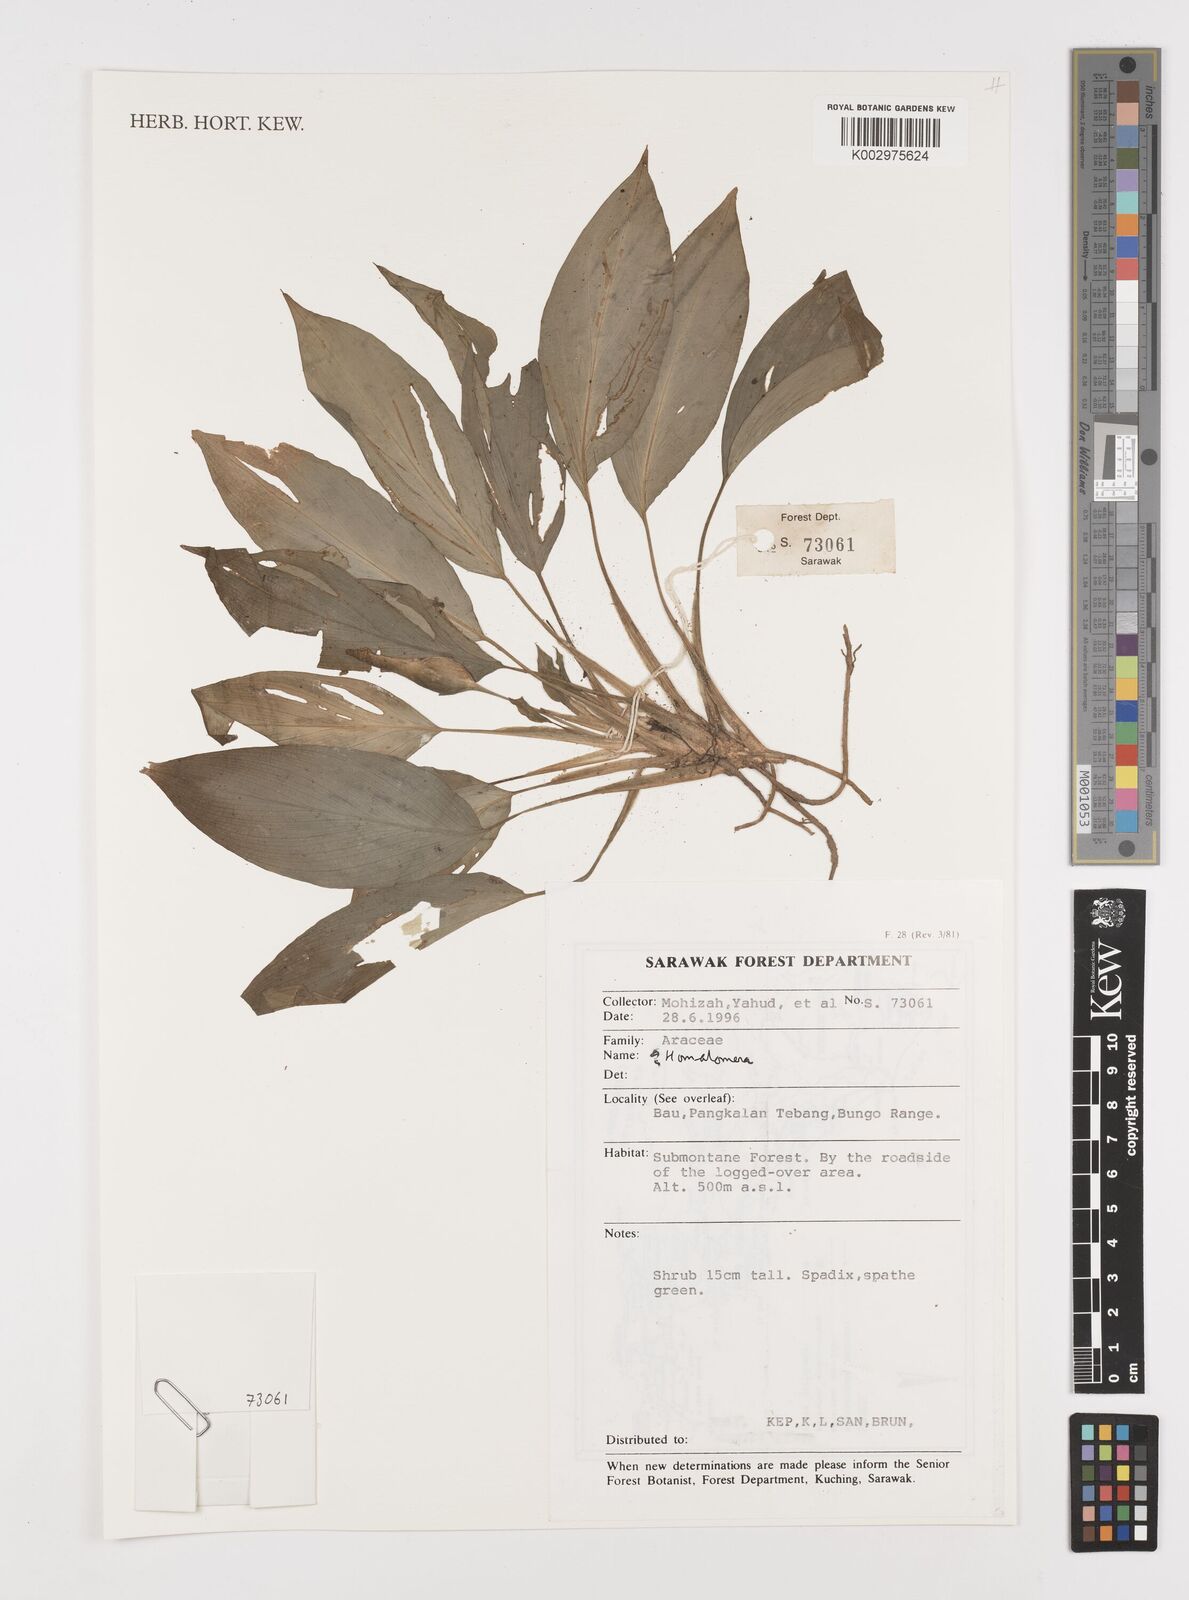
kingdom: Plantae
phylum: Tracheophyta
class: Liliopsida
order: Alismatales
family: Araceae
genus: Homalomena
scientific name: Homalomena
